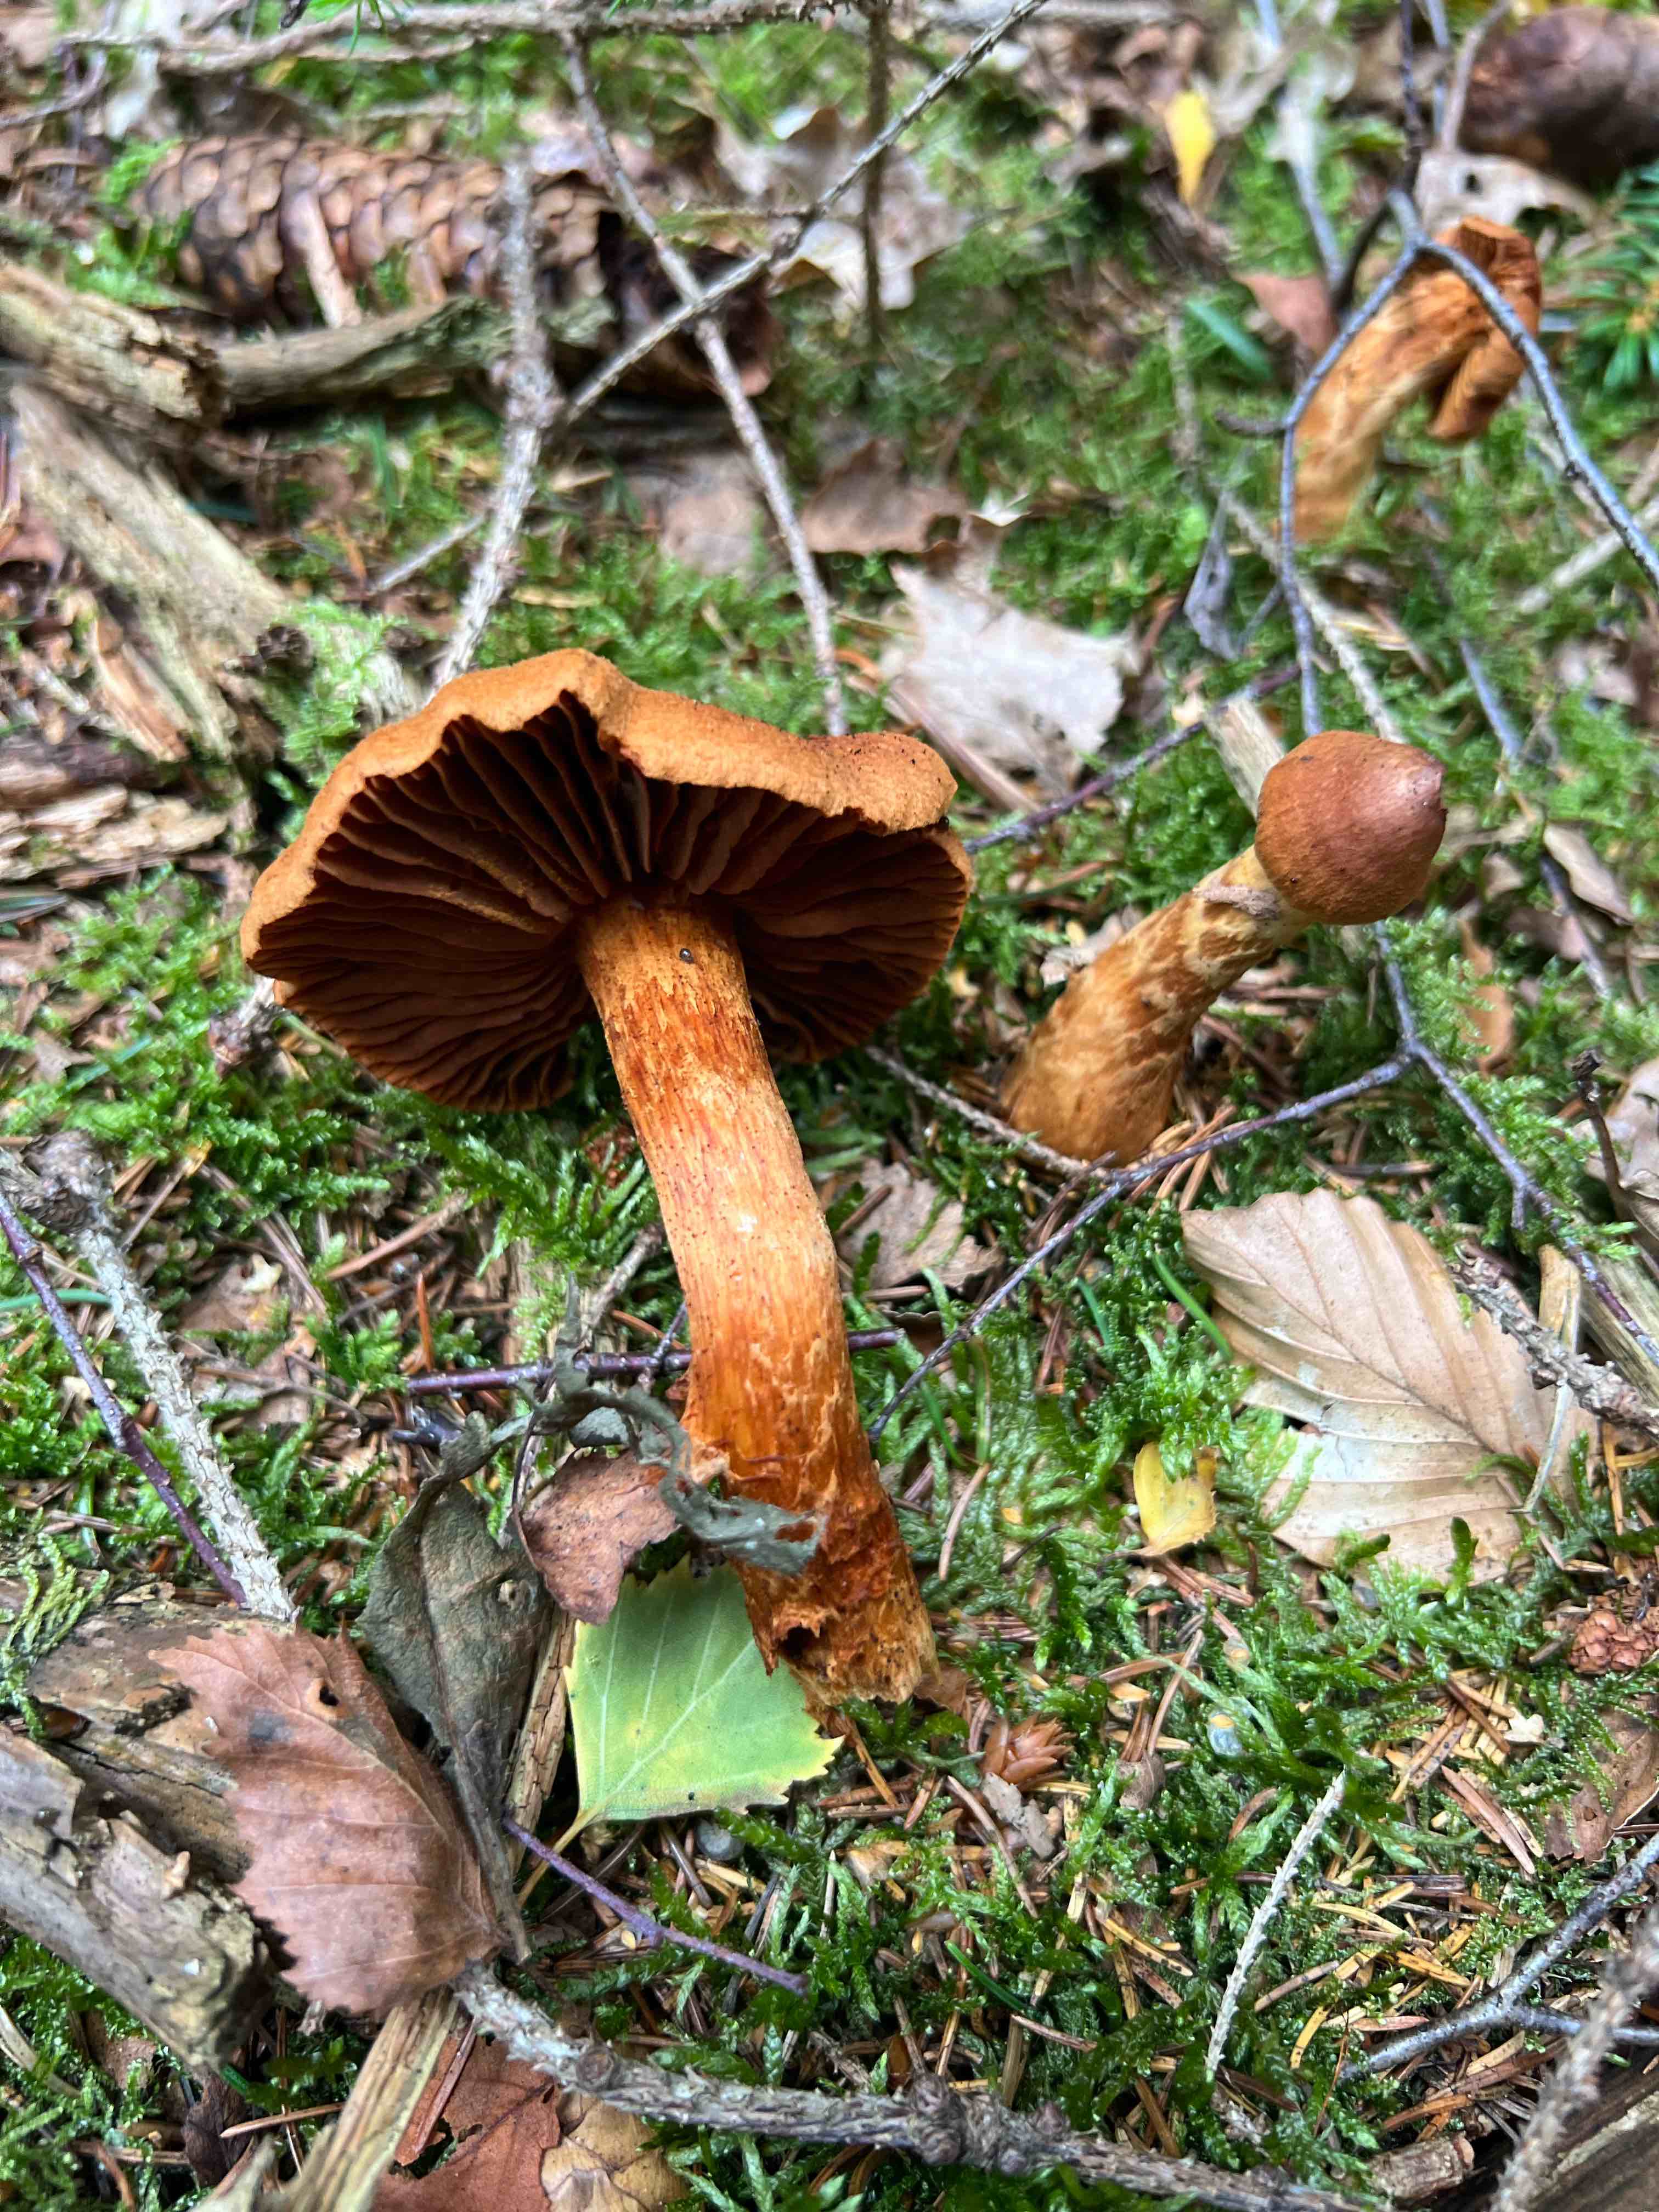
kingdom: Fungi
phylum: Basidiomycota
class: Agaricomycetes
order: Agaricales
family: Cortinariaceae
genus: Cortinarius
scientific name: Cortinarius rubellus
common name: puklet gift-slørhat
